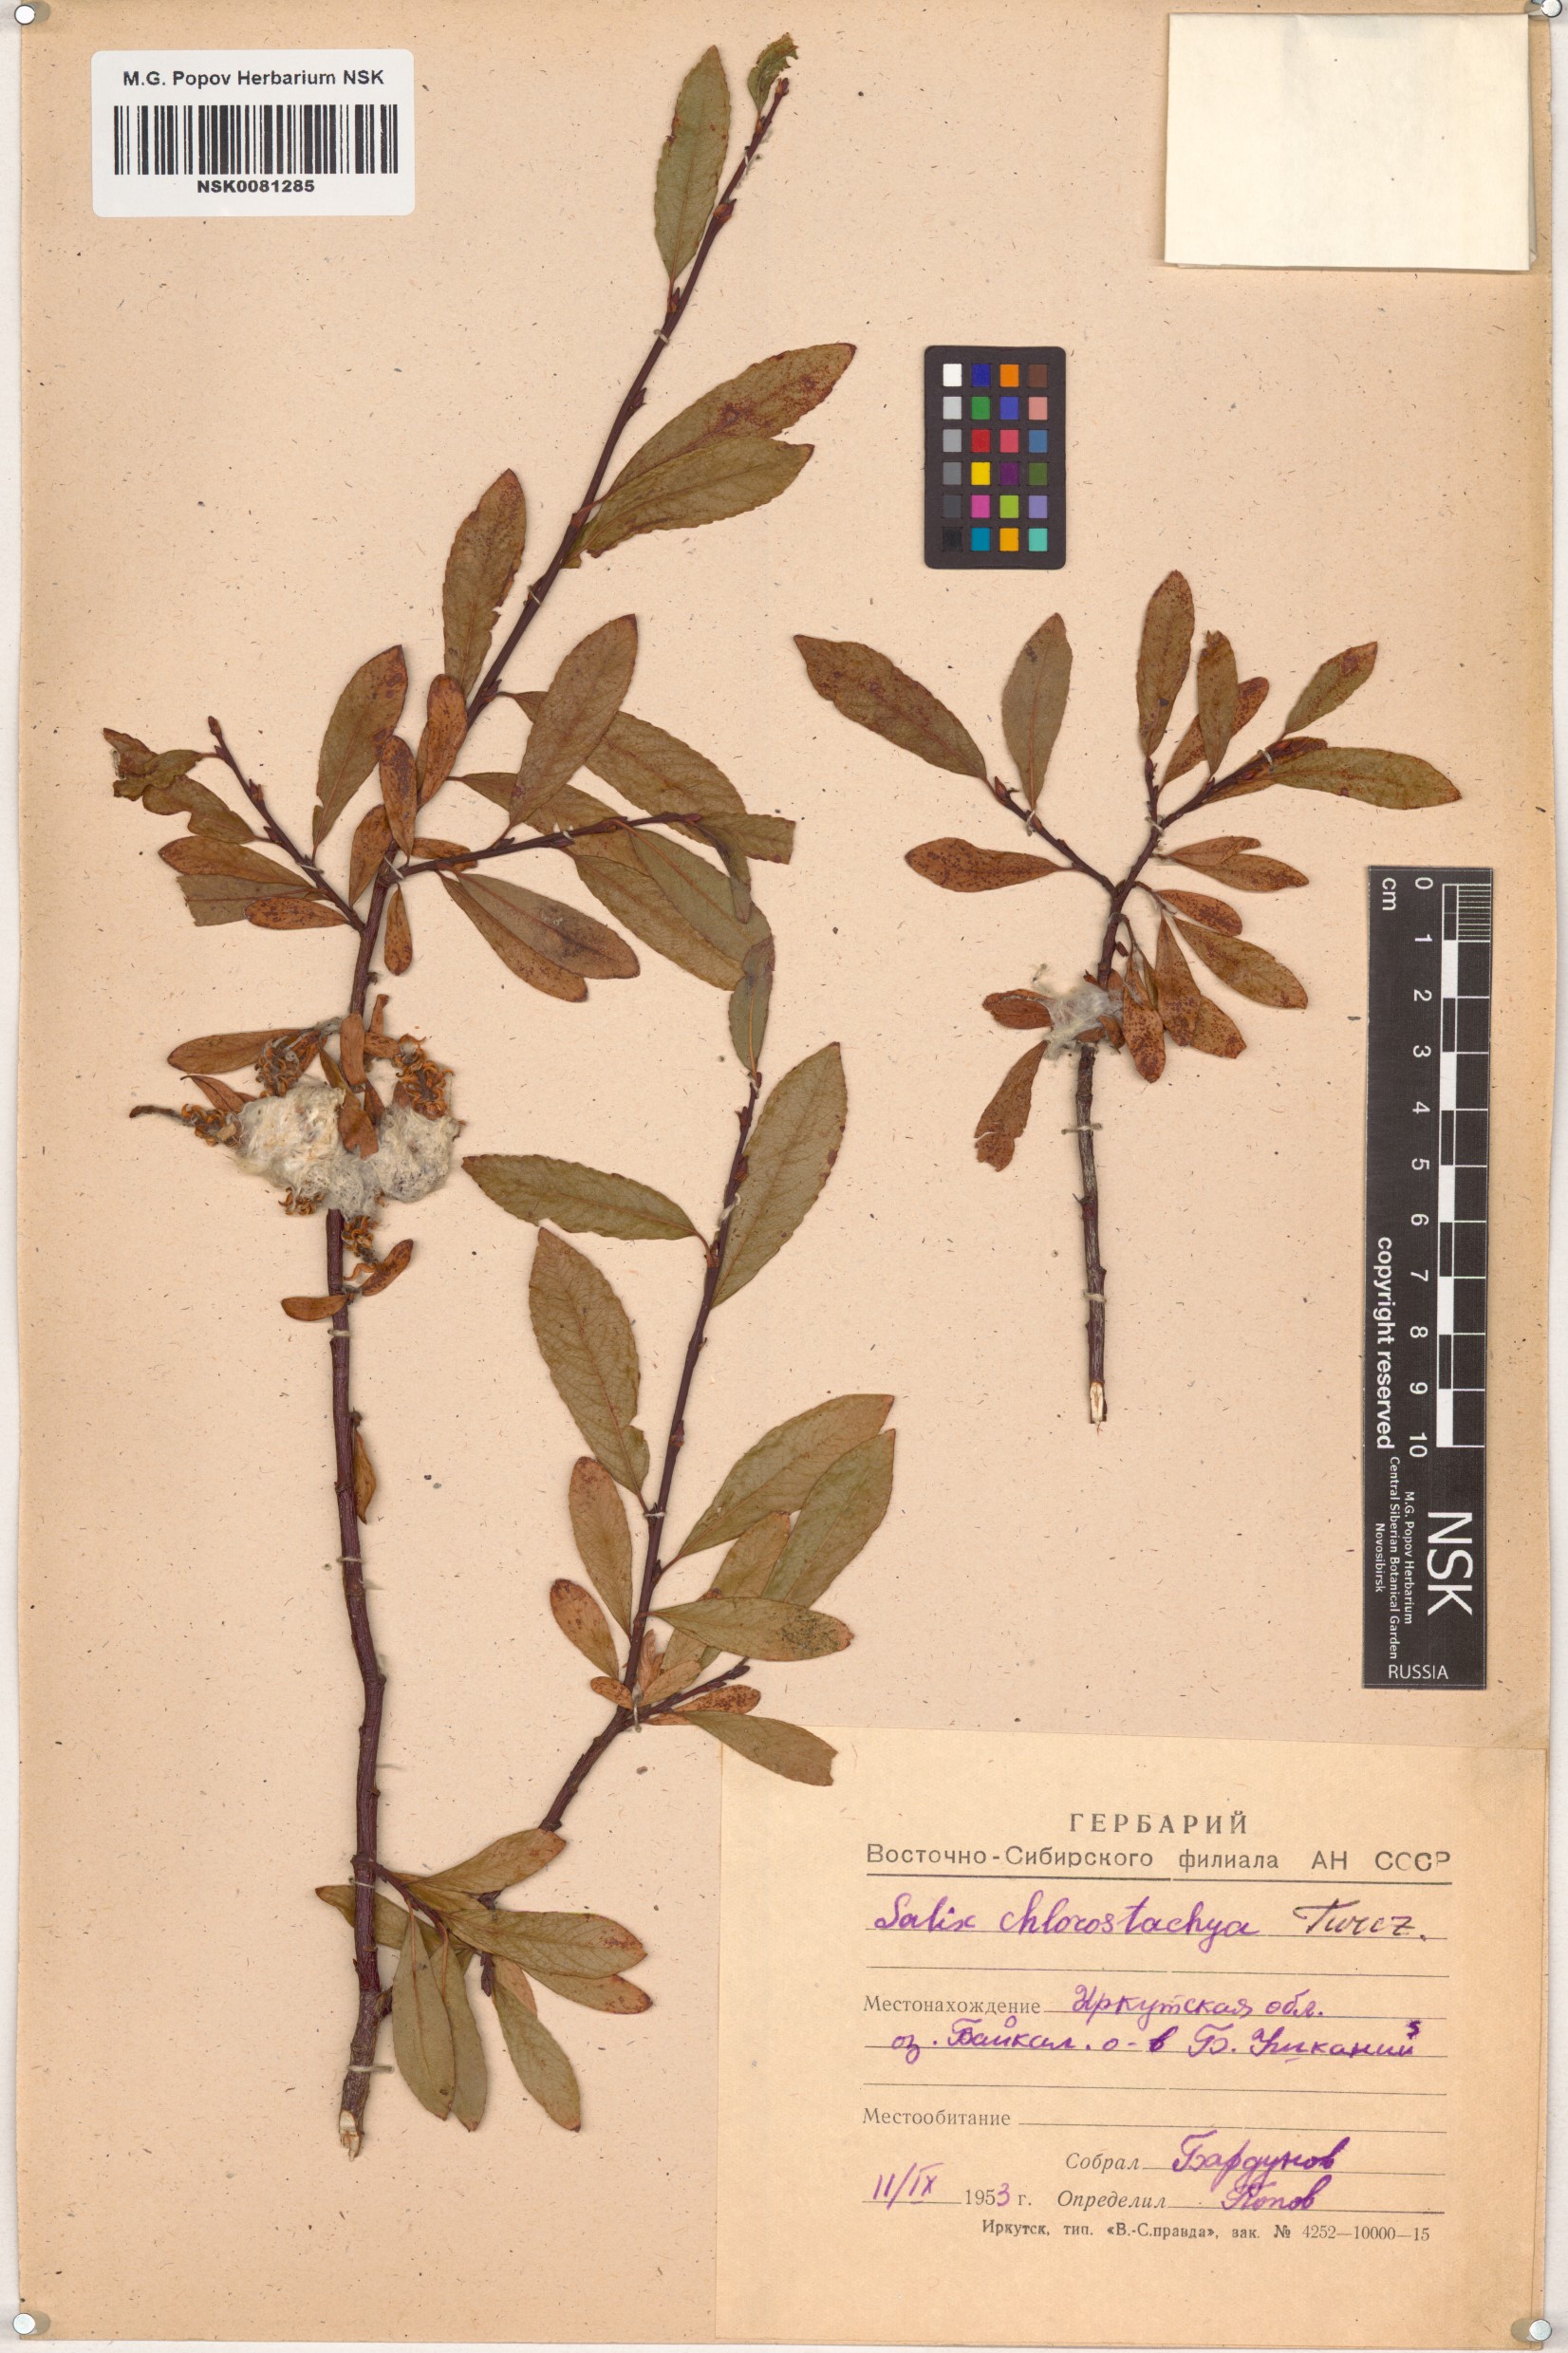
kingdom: Plantae
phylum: Tracheophyta
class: Magnoliopsida
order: Malpighiales
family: Salicaceae
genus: Salix
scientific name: Salix rhamnifolia
